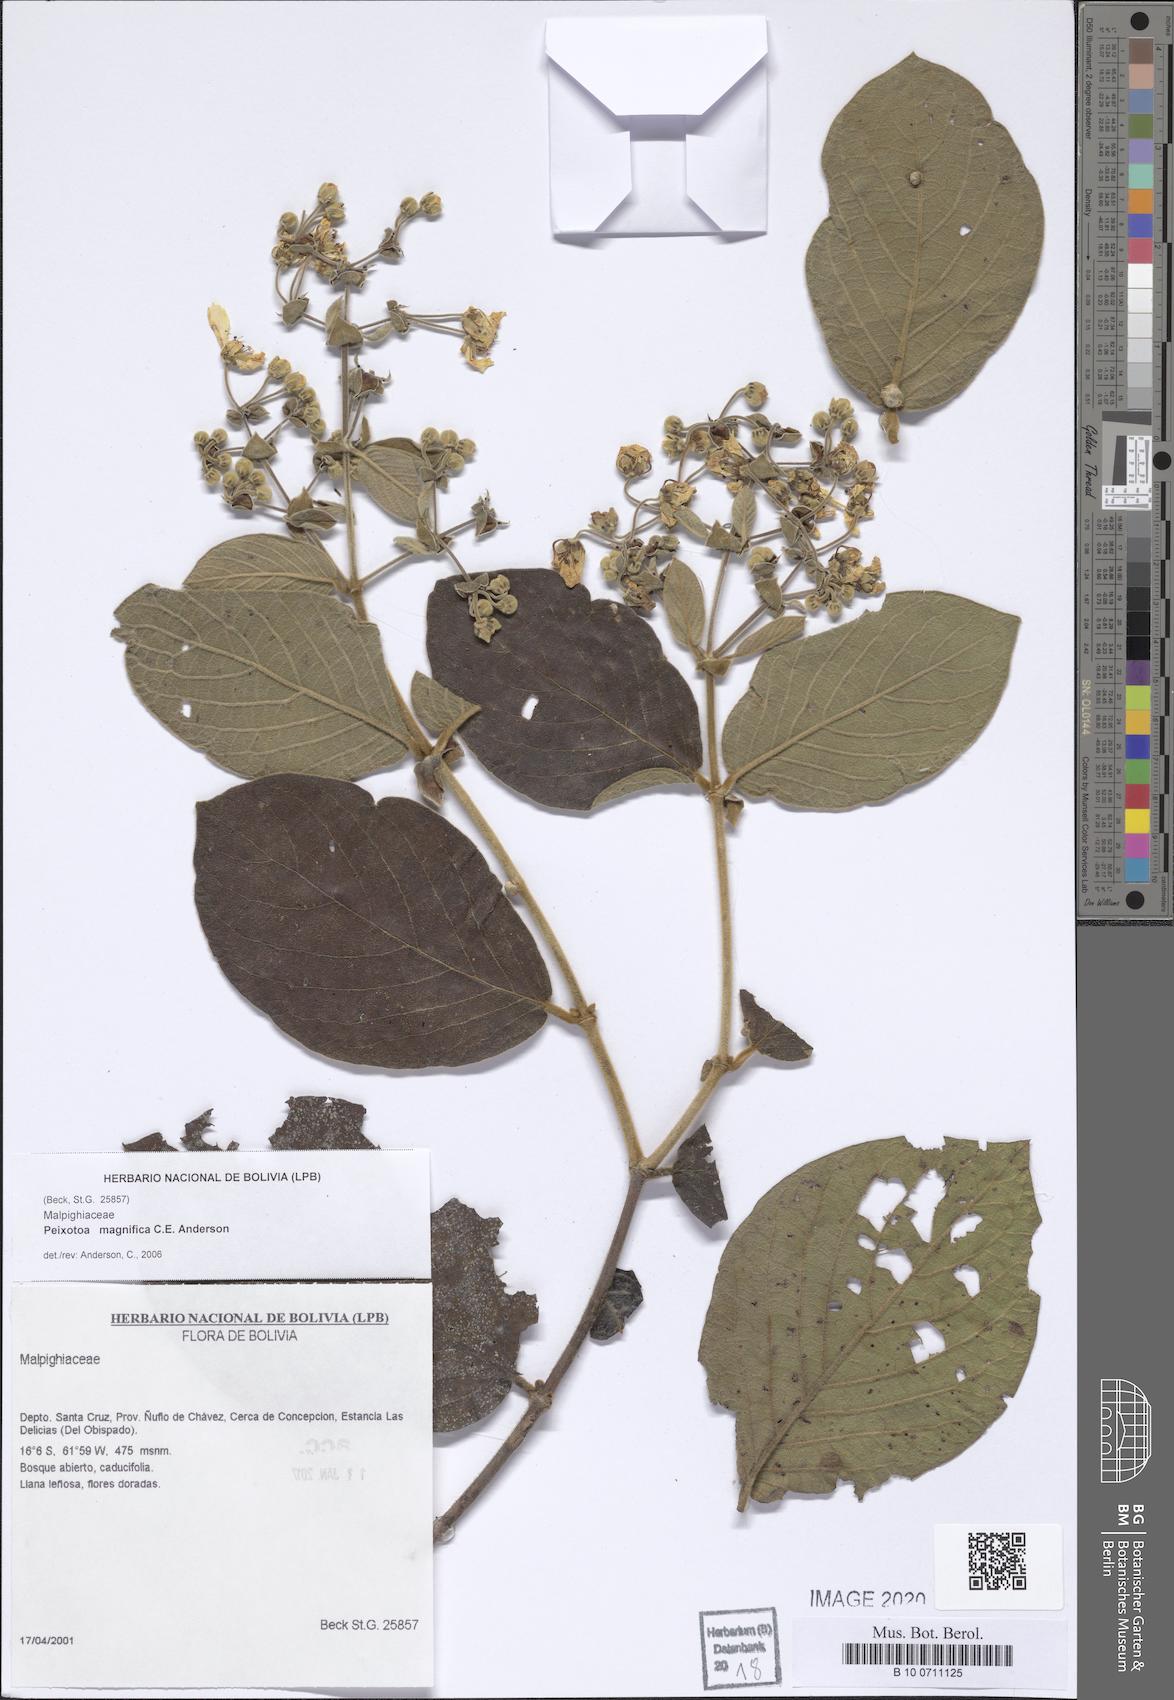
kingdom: Plantae
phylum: Tracheophyta
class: Magnoliopsida
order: Malpighiales
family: Malpighiaceae
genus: Peixotoa
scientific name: Peixotoa magnifica
